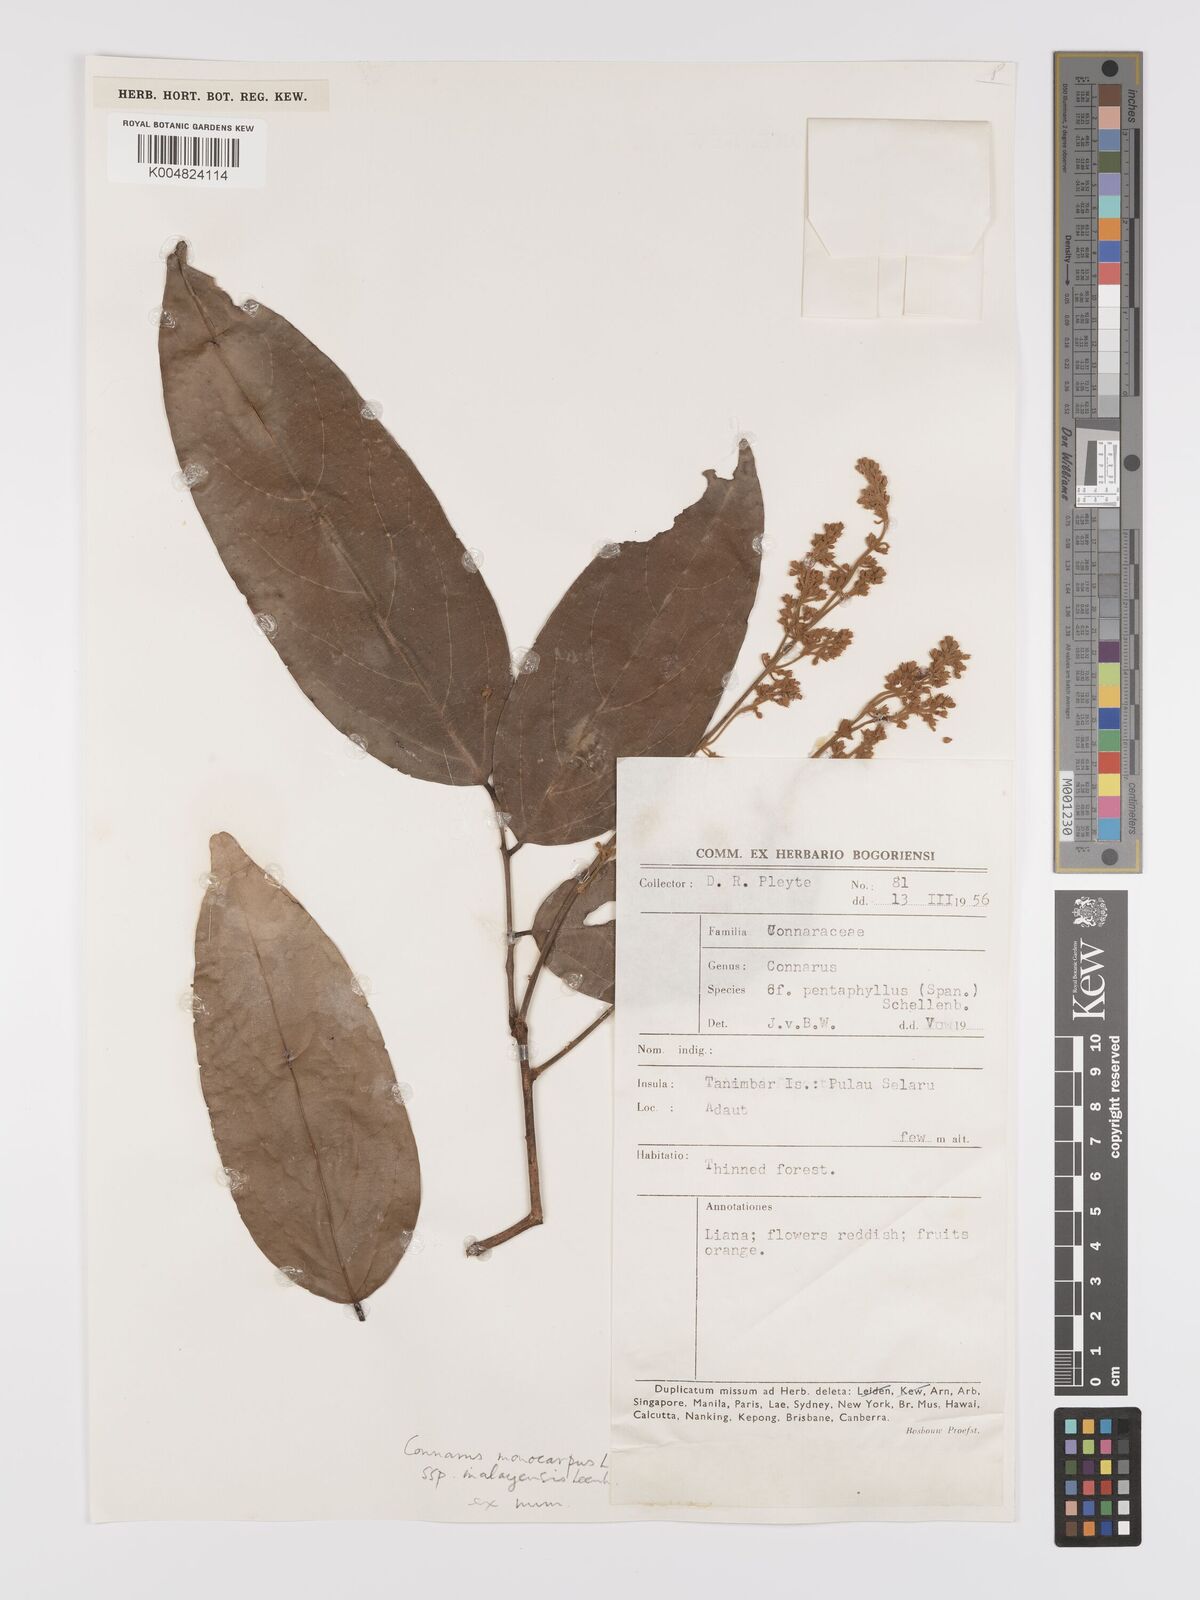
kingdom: Plantae
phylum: Tracheophyta
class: Magnoliopsida
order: Oxalidales
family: Connaraceae
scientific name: Connaraceae
